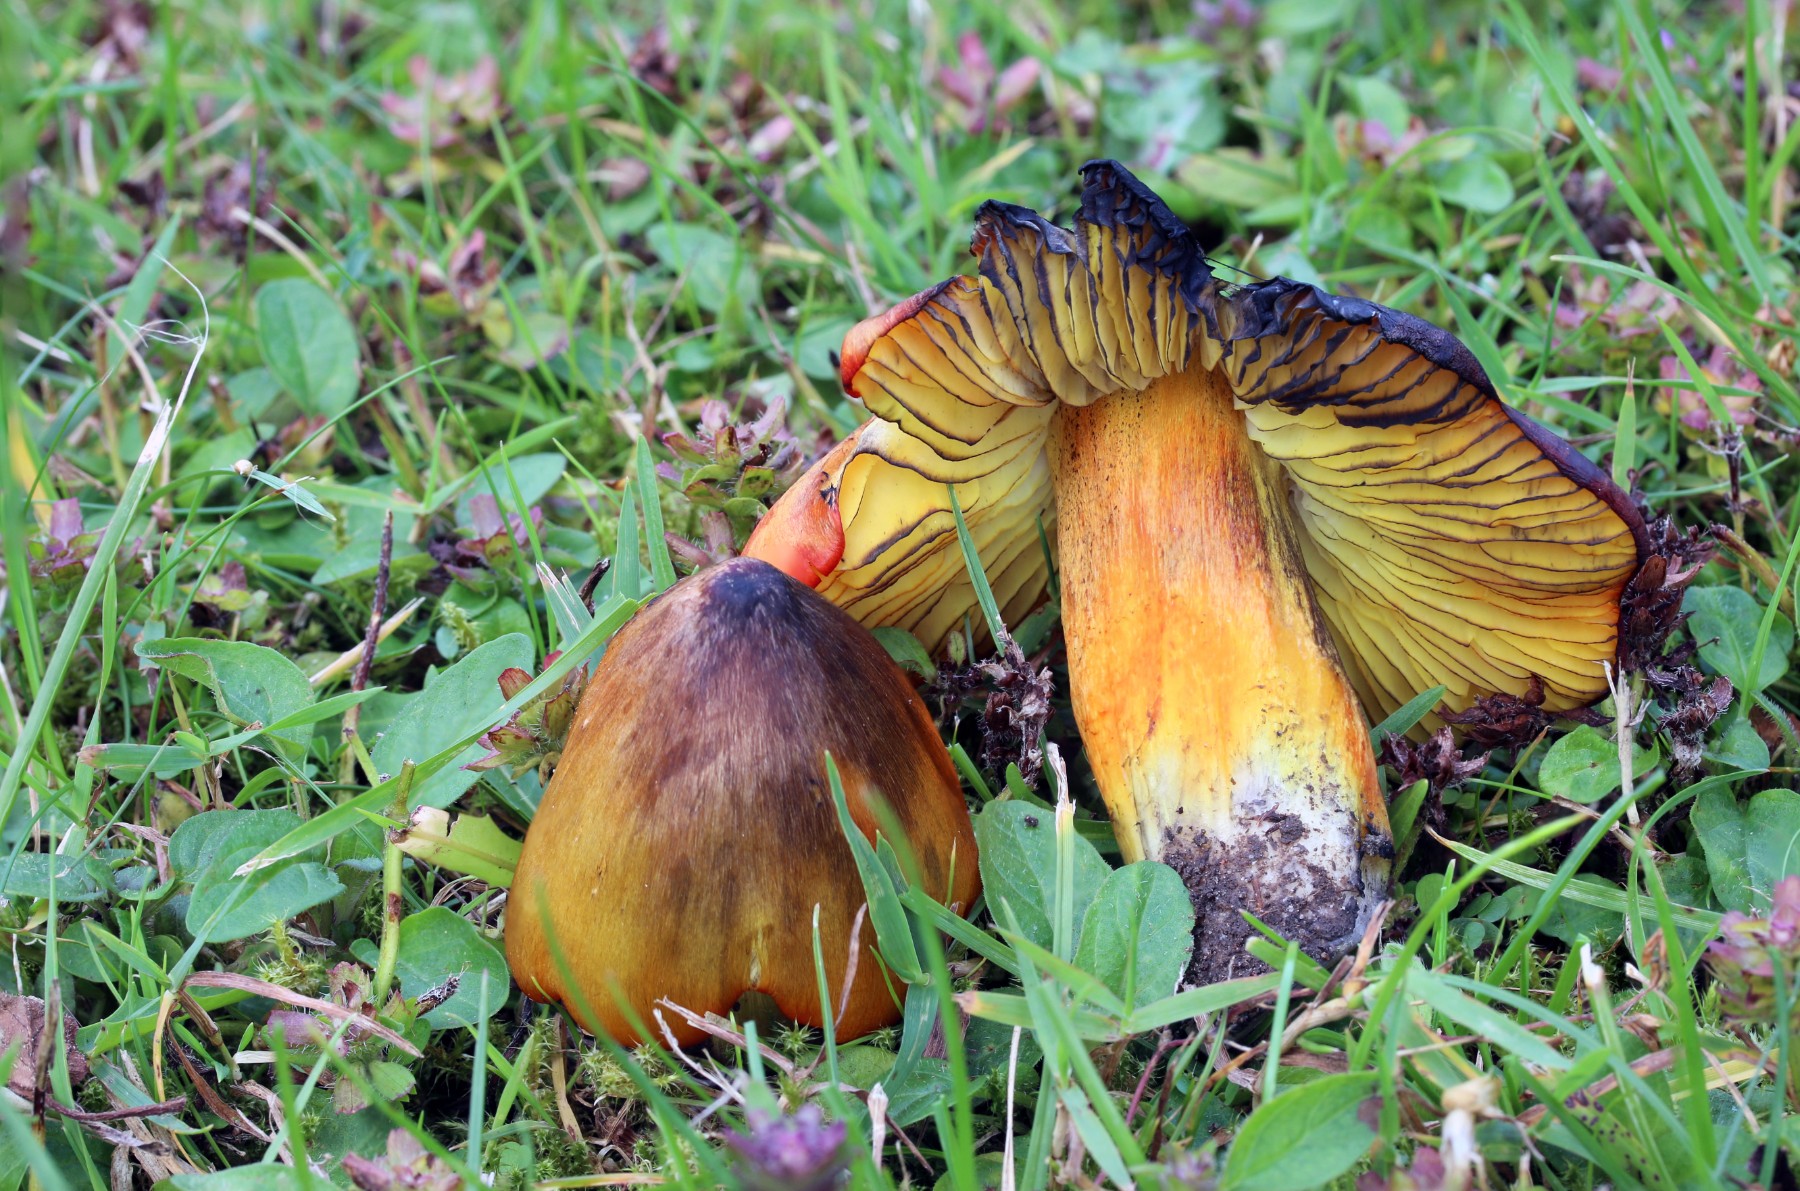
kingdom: Fungi
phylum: Basidiomycota
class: Agaricomycetes
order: Agaricales
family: Hygrophoraceae
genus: Hygrocybe
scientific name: Hygrocybe conica
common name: kegle-vokshat
